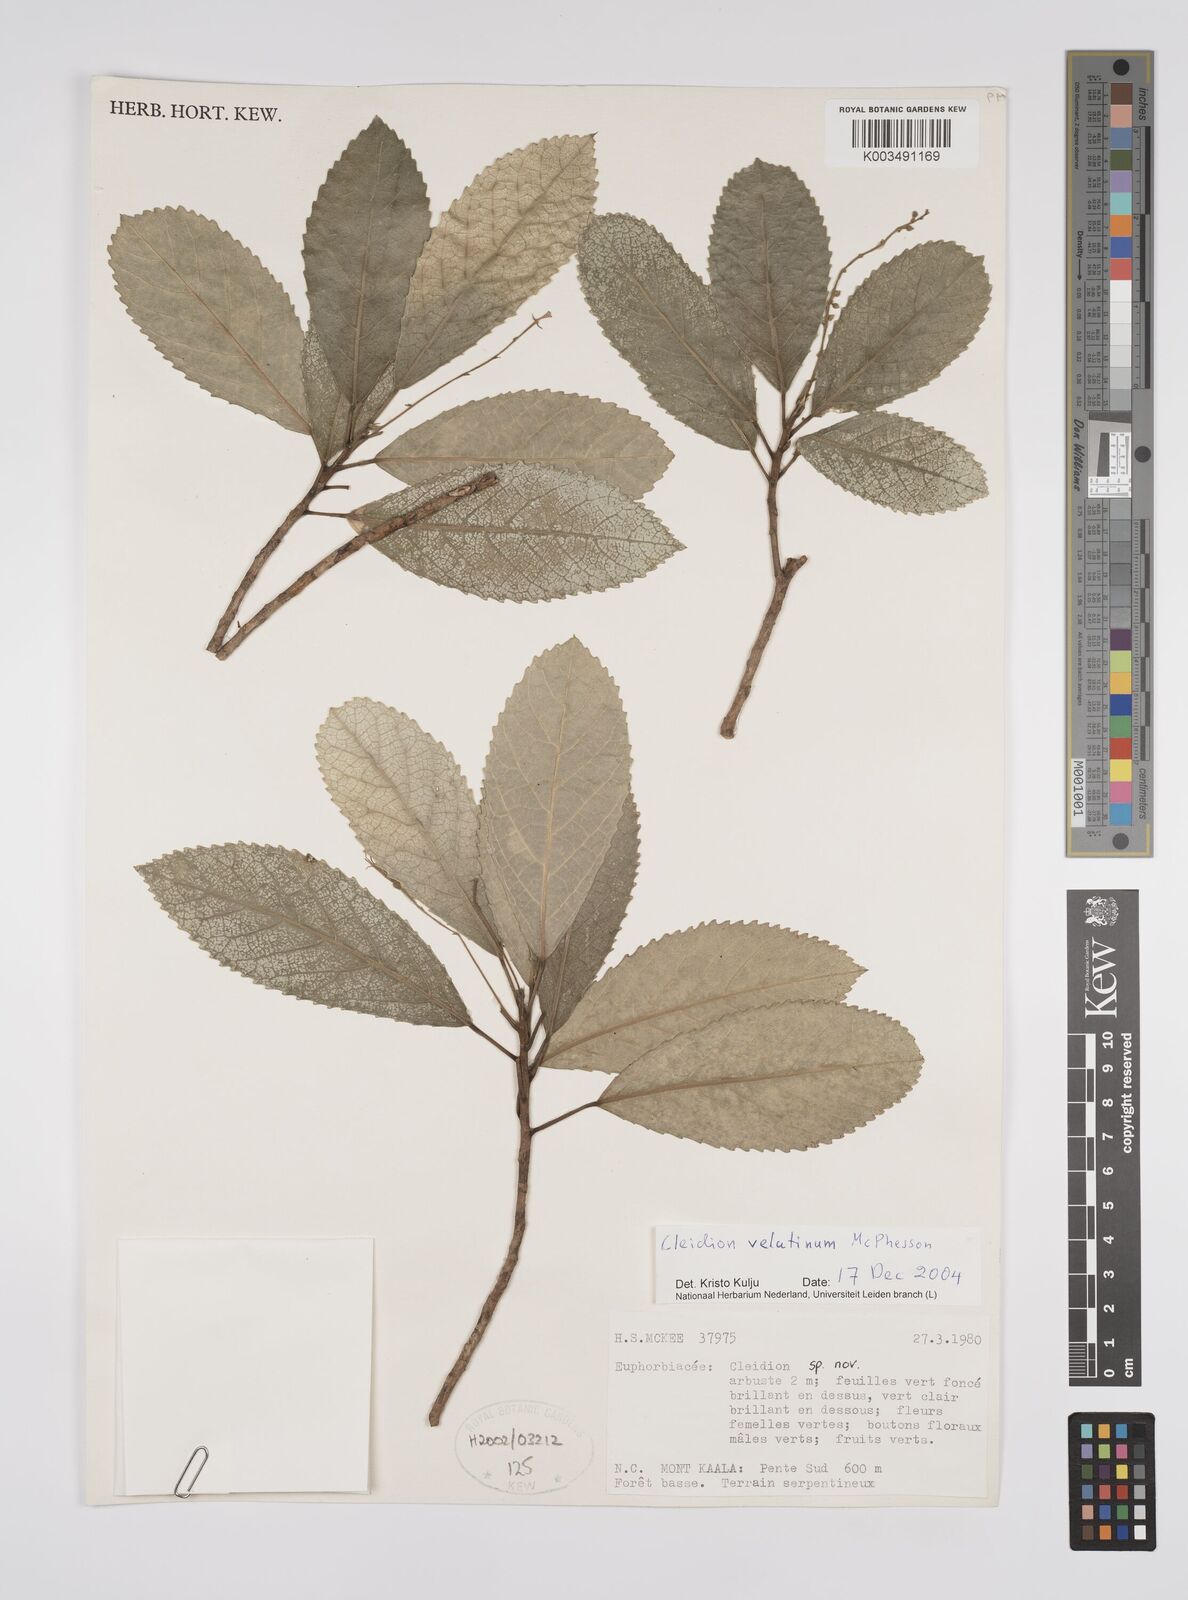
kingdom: Plantae
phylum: Tracheophyta
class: Magnoliopsida
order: Malpighiales
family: Euphorbiaceae
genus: Cleidion
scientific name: Cleidion velutinum
